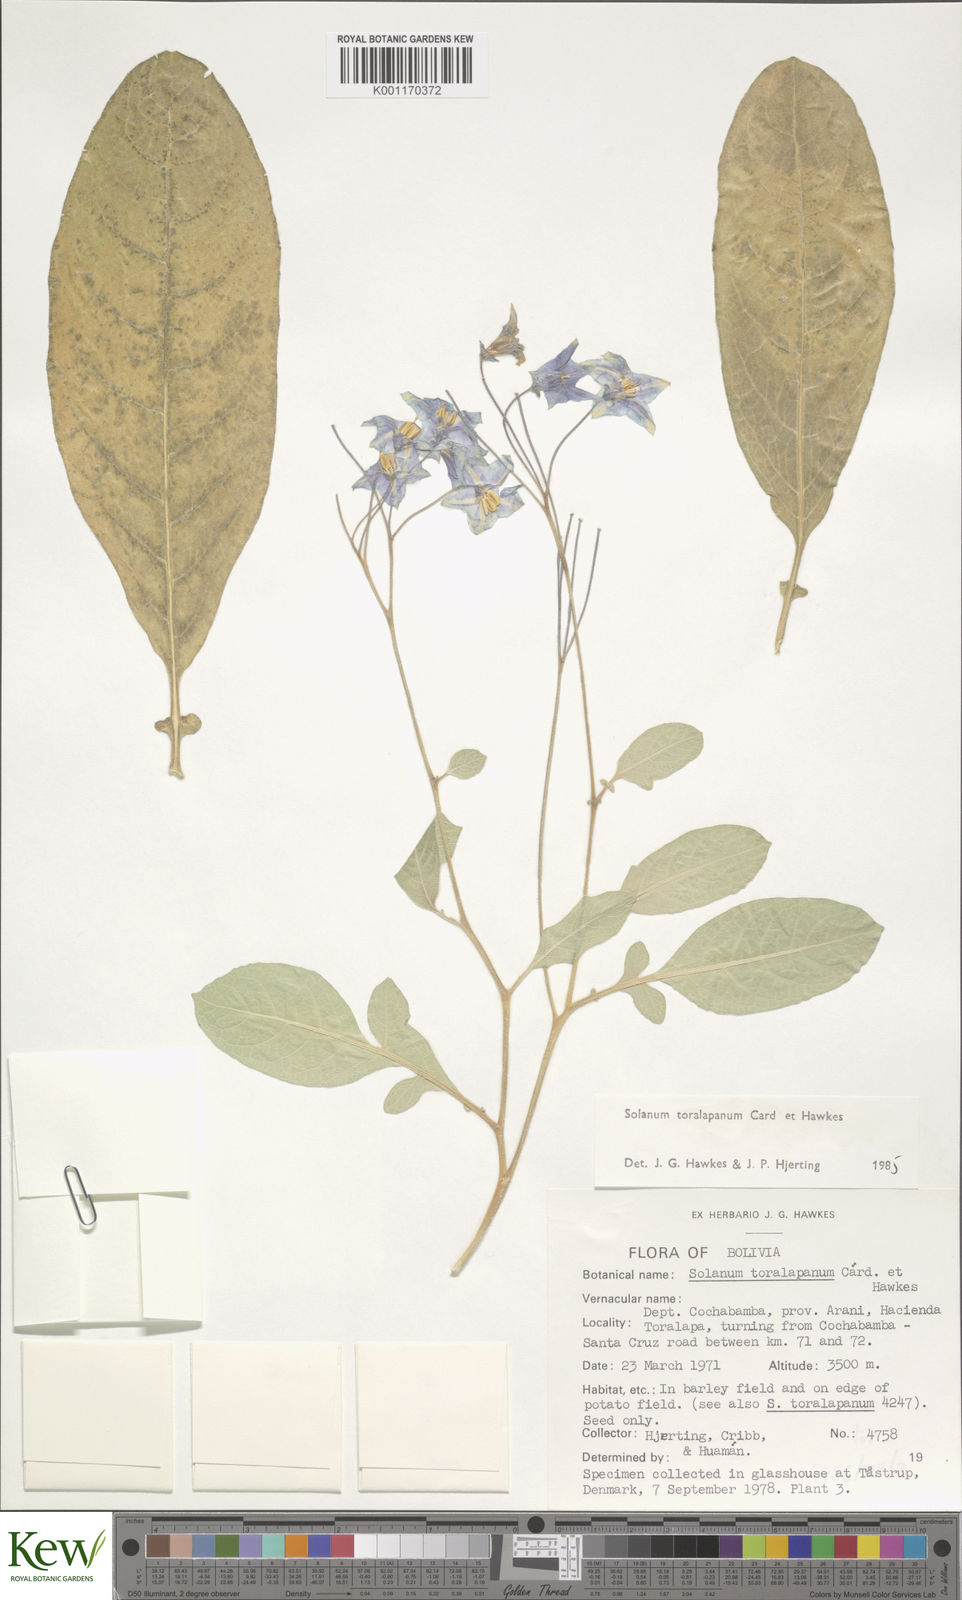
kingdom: Plantae
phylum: Tracheophyta
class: Magnoliopsida
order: Solanales
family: Solanaceae
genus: Solanum
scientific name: Solanum
